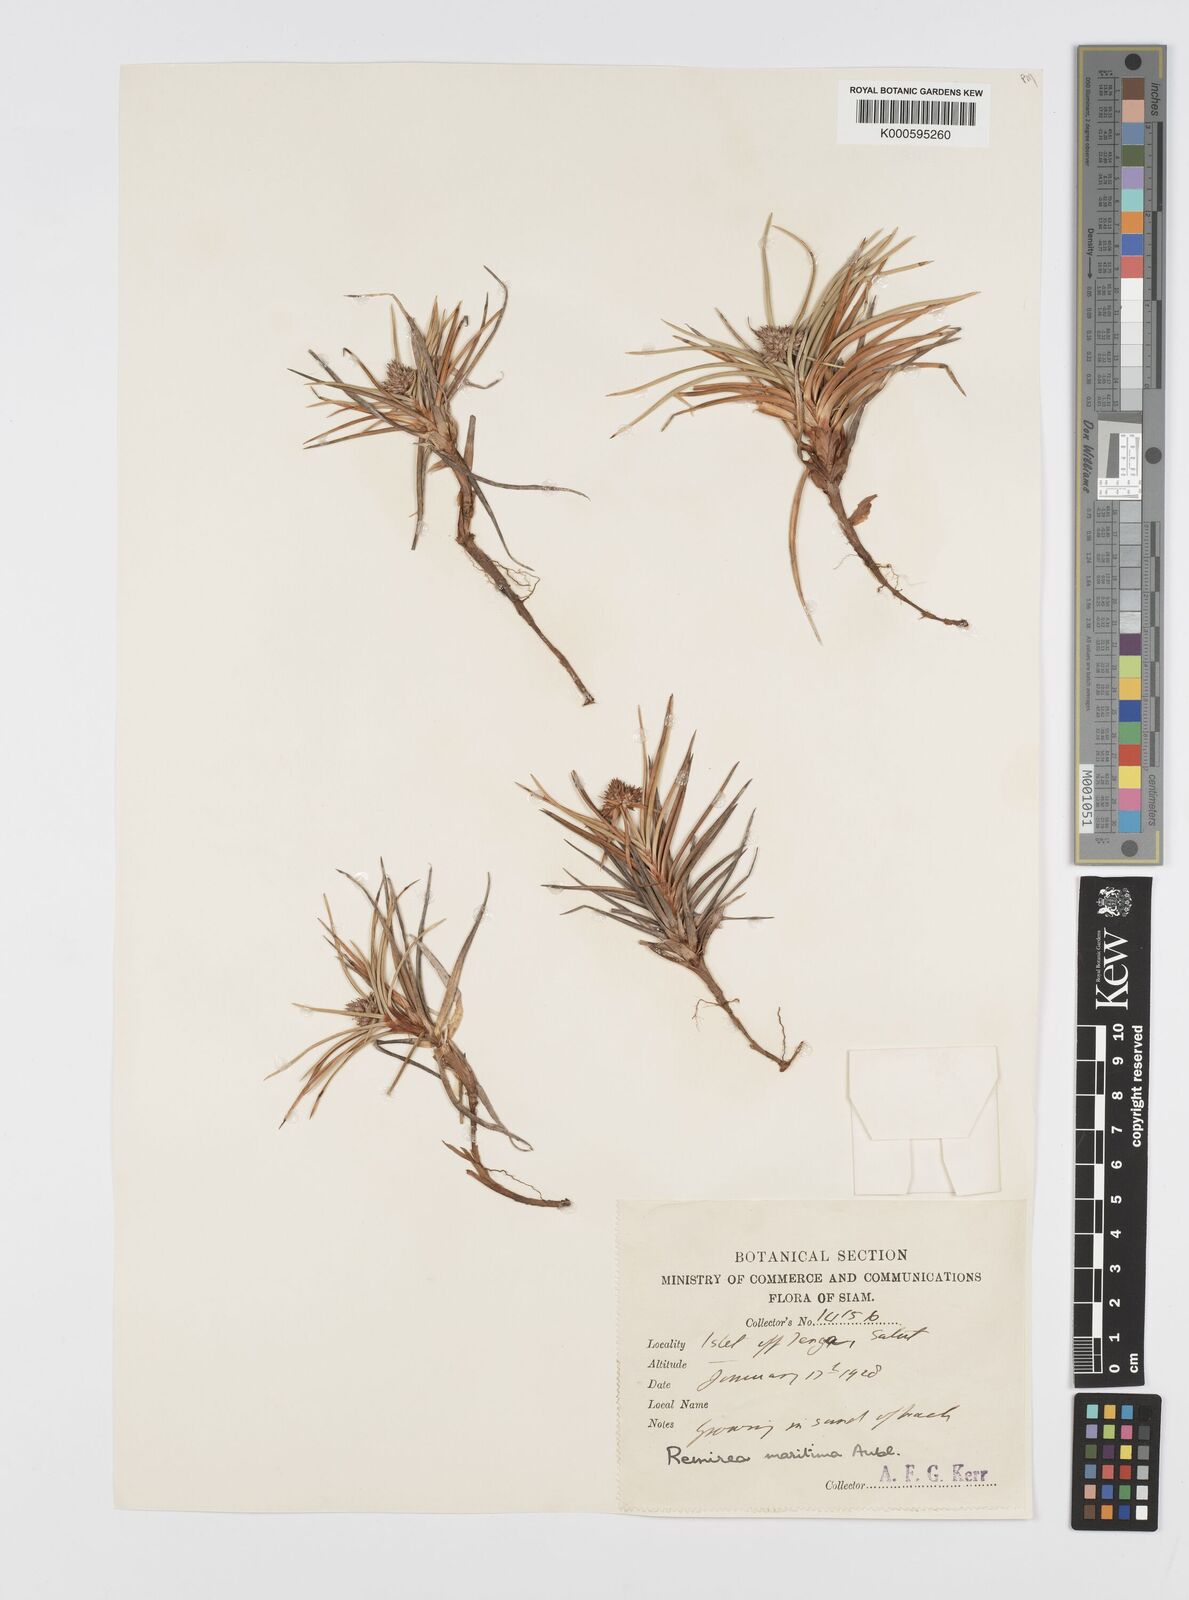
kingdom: Plantae
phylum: Tracheophyta
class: Liliopsida
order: Poales
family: Cyperaceae
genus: Cyperus
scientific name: Cyperus pedunculatus
